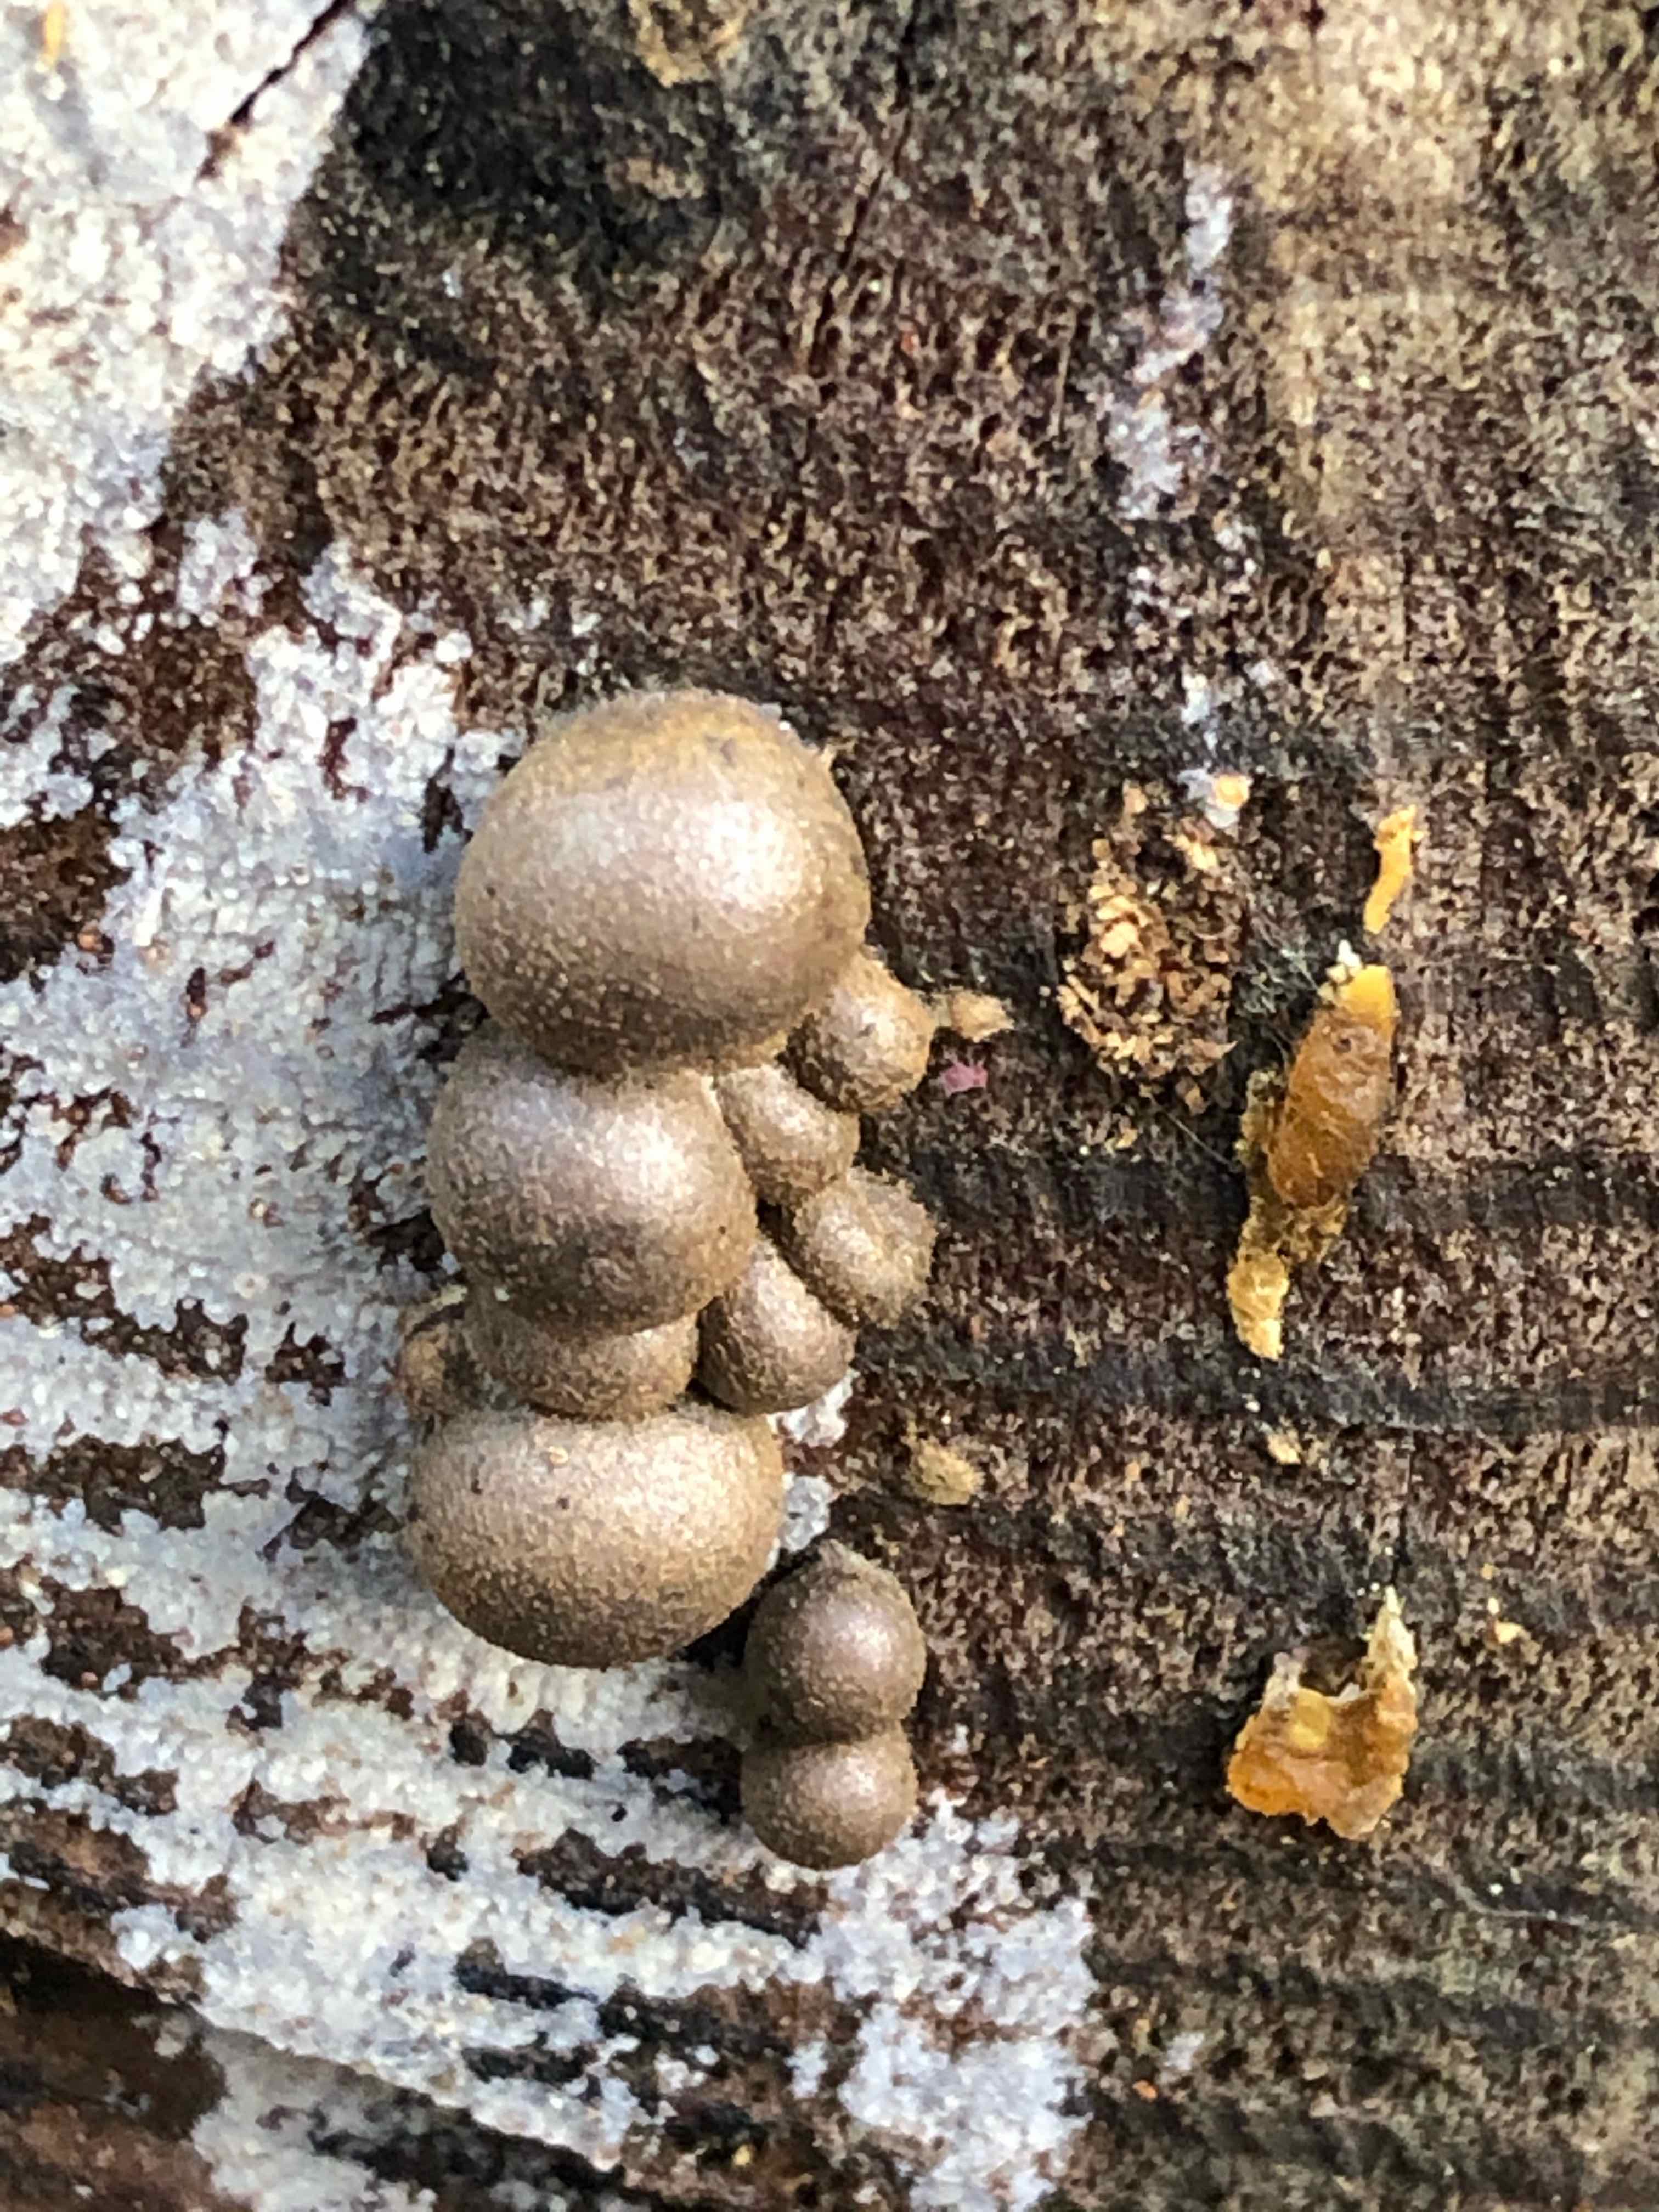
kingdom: Protozoa
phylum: Mycetozoa
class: Myxomycetes
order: Cribrariales
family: Tubiferaceae
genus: Lycogala
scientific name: Lycogala epidendrum
